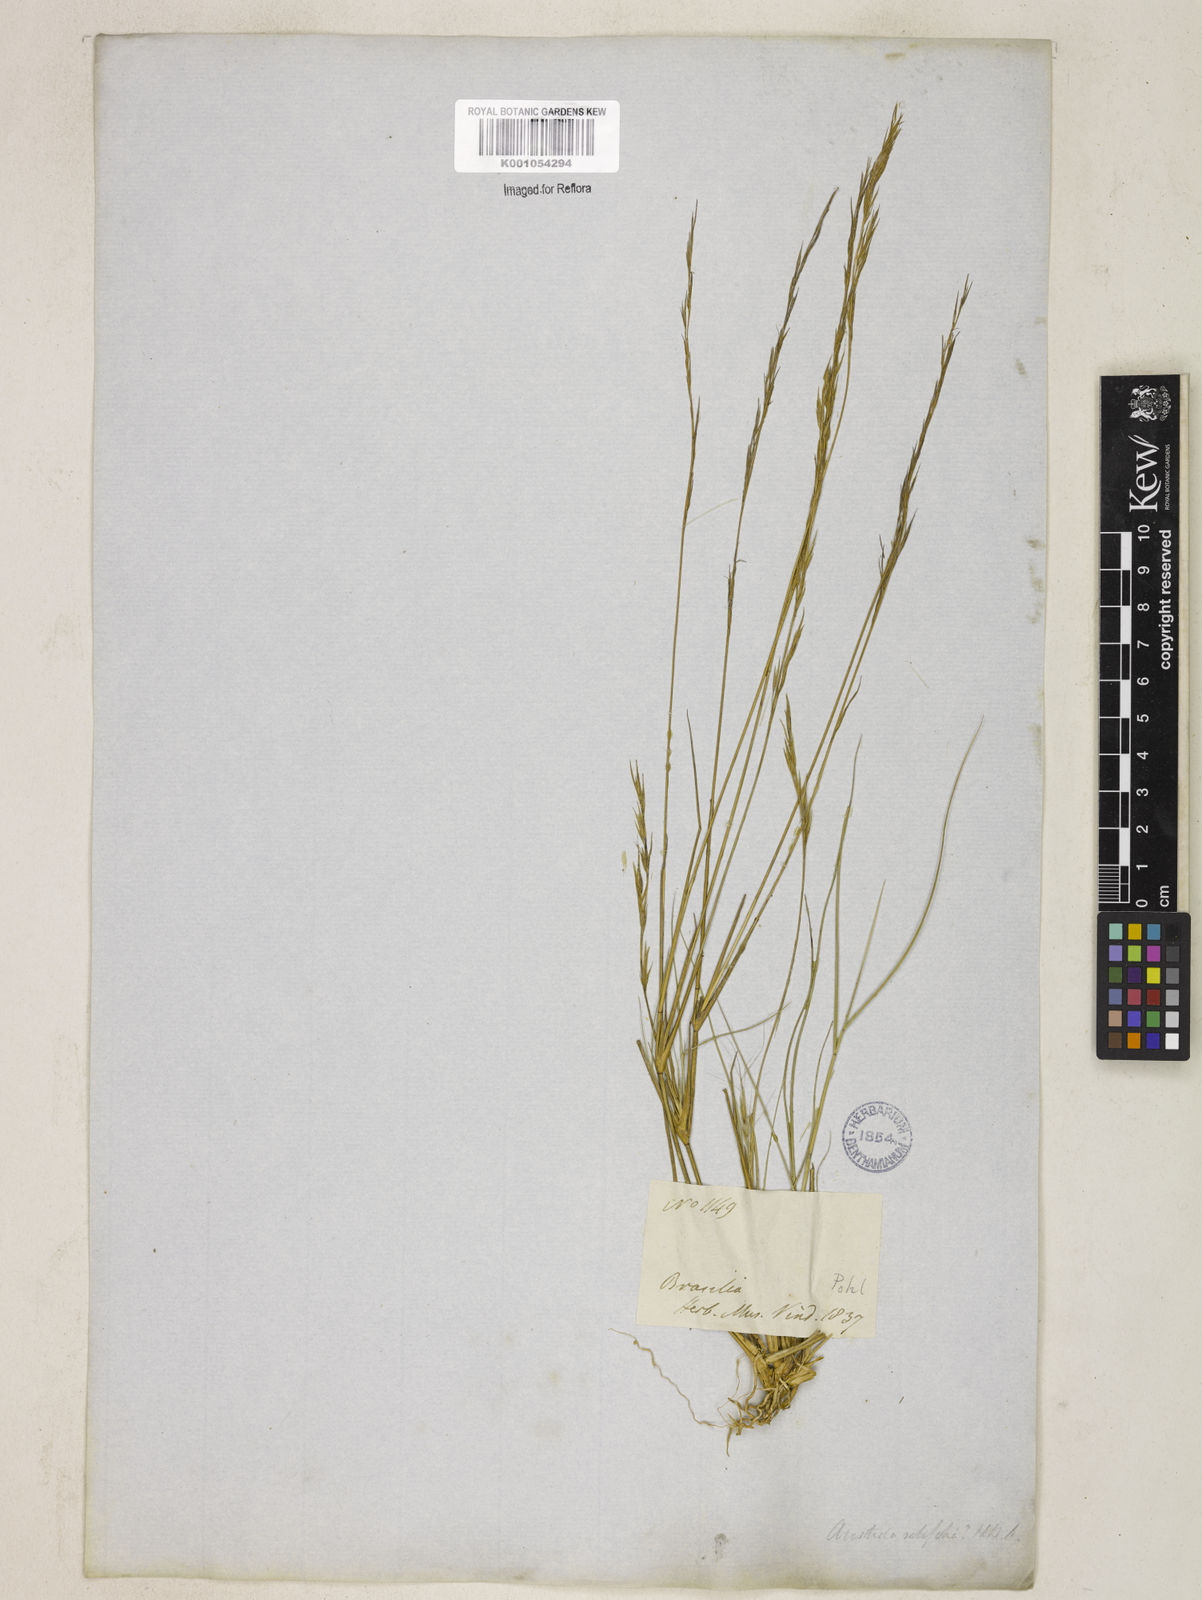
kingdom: Plantae
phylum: Tracheophyta
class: Liliopsida
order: Poales
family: Poaceae
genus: Aristida
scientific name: Aristida setifolia
